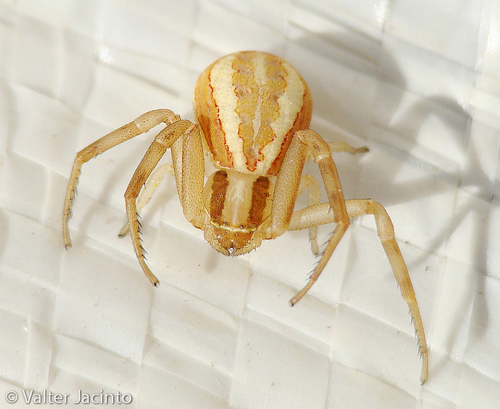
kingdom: Animalia
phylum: Arthropoda
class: Arachnida
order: Araneae
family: Thomisidae
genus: Runcinia
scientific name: Runcinia grammica
